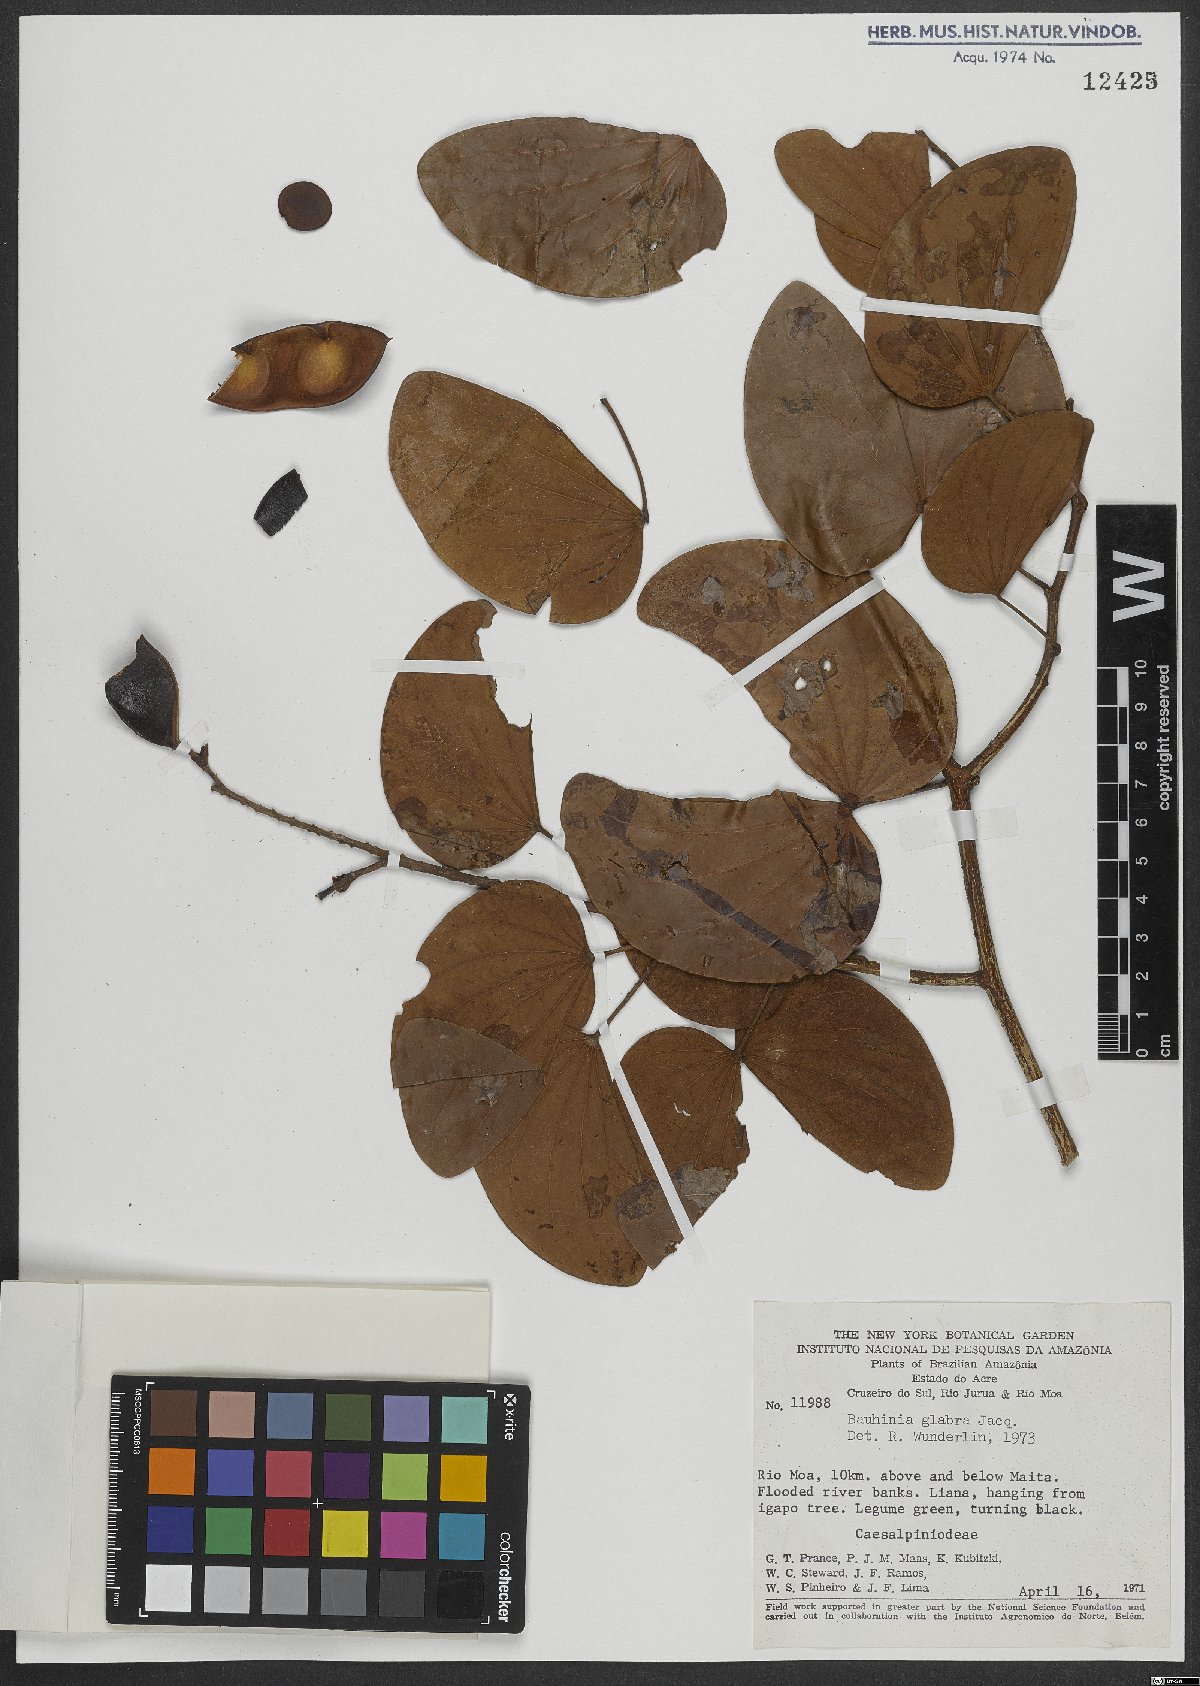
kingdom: Plantae
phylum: Tracheophyta
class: Magnoliopsida
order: Fabales
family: Fabaceae
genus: Schnella
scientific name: Schnella glabra
